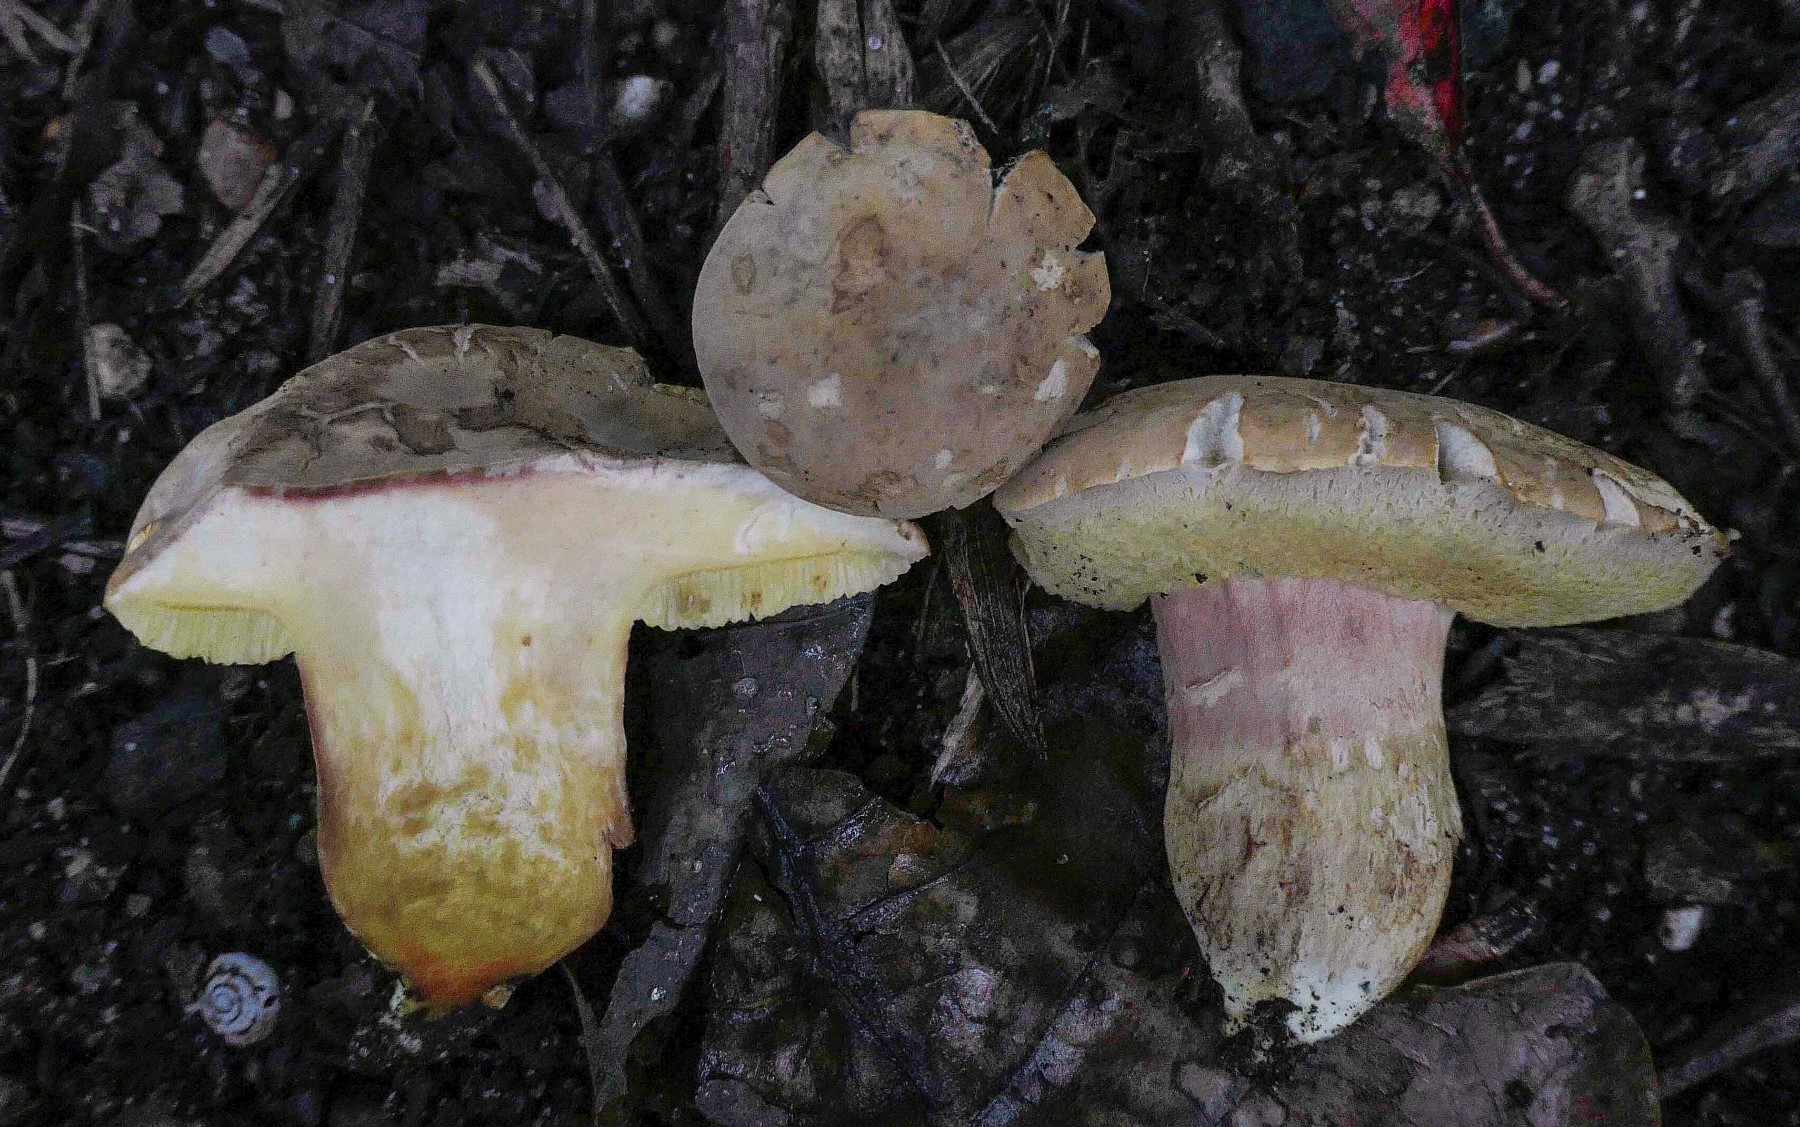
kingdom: Fungi
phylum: Basidiomycota
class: Agaricomycetes
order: Boletales
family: Boletaceae
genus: Hortiboletus
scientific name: Hortiboletus engelii
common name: fersken-rørhat
